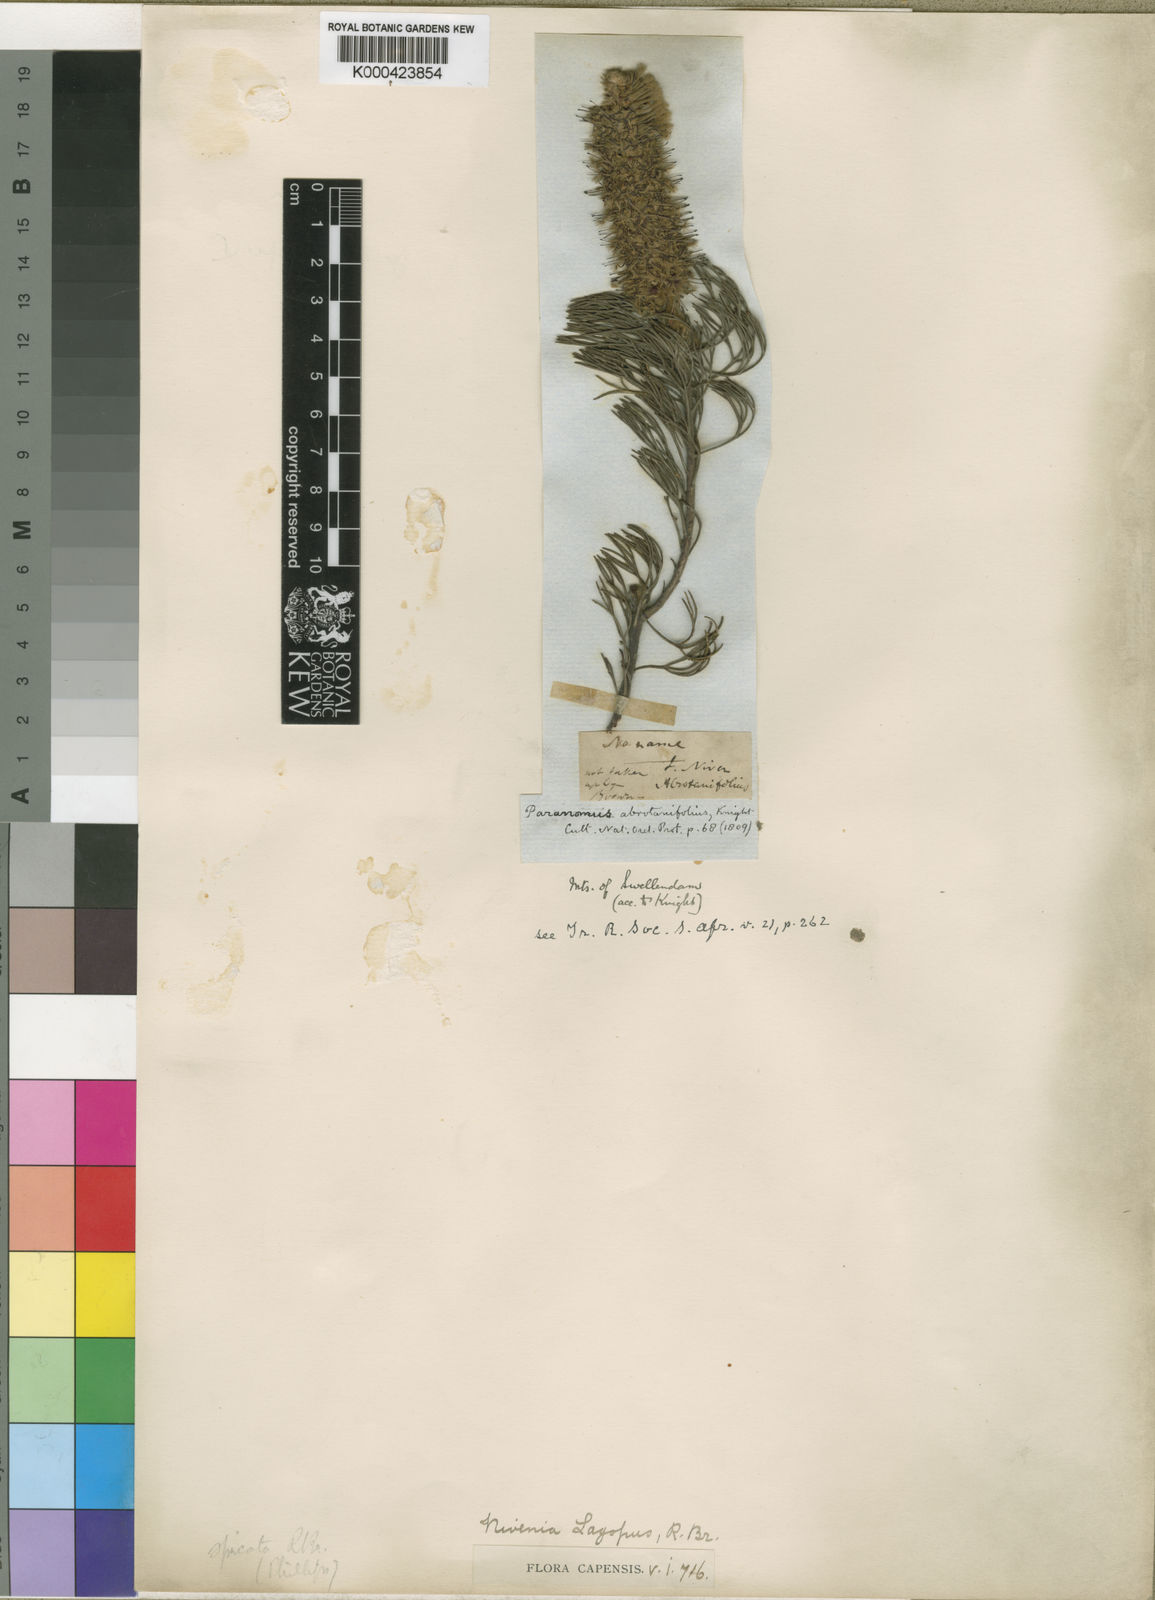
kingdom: Plantae
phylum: Tracheophyta
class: Magnoliopsida
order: Proteales
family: Proteaceae
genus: Paranomus
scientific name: Paranomus
